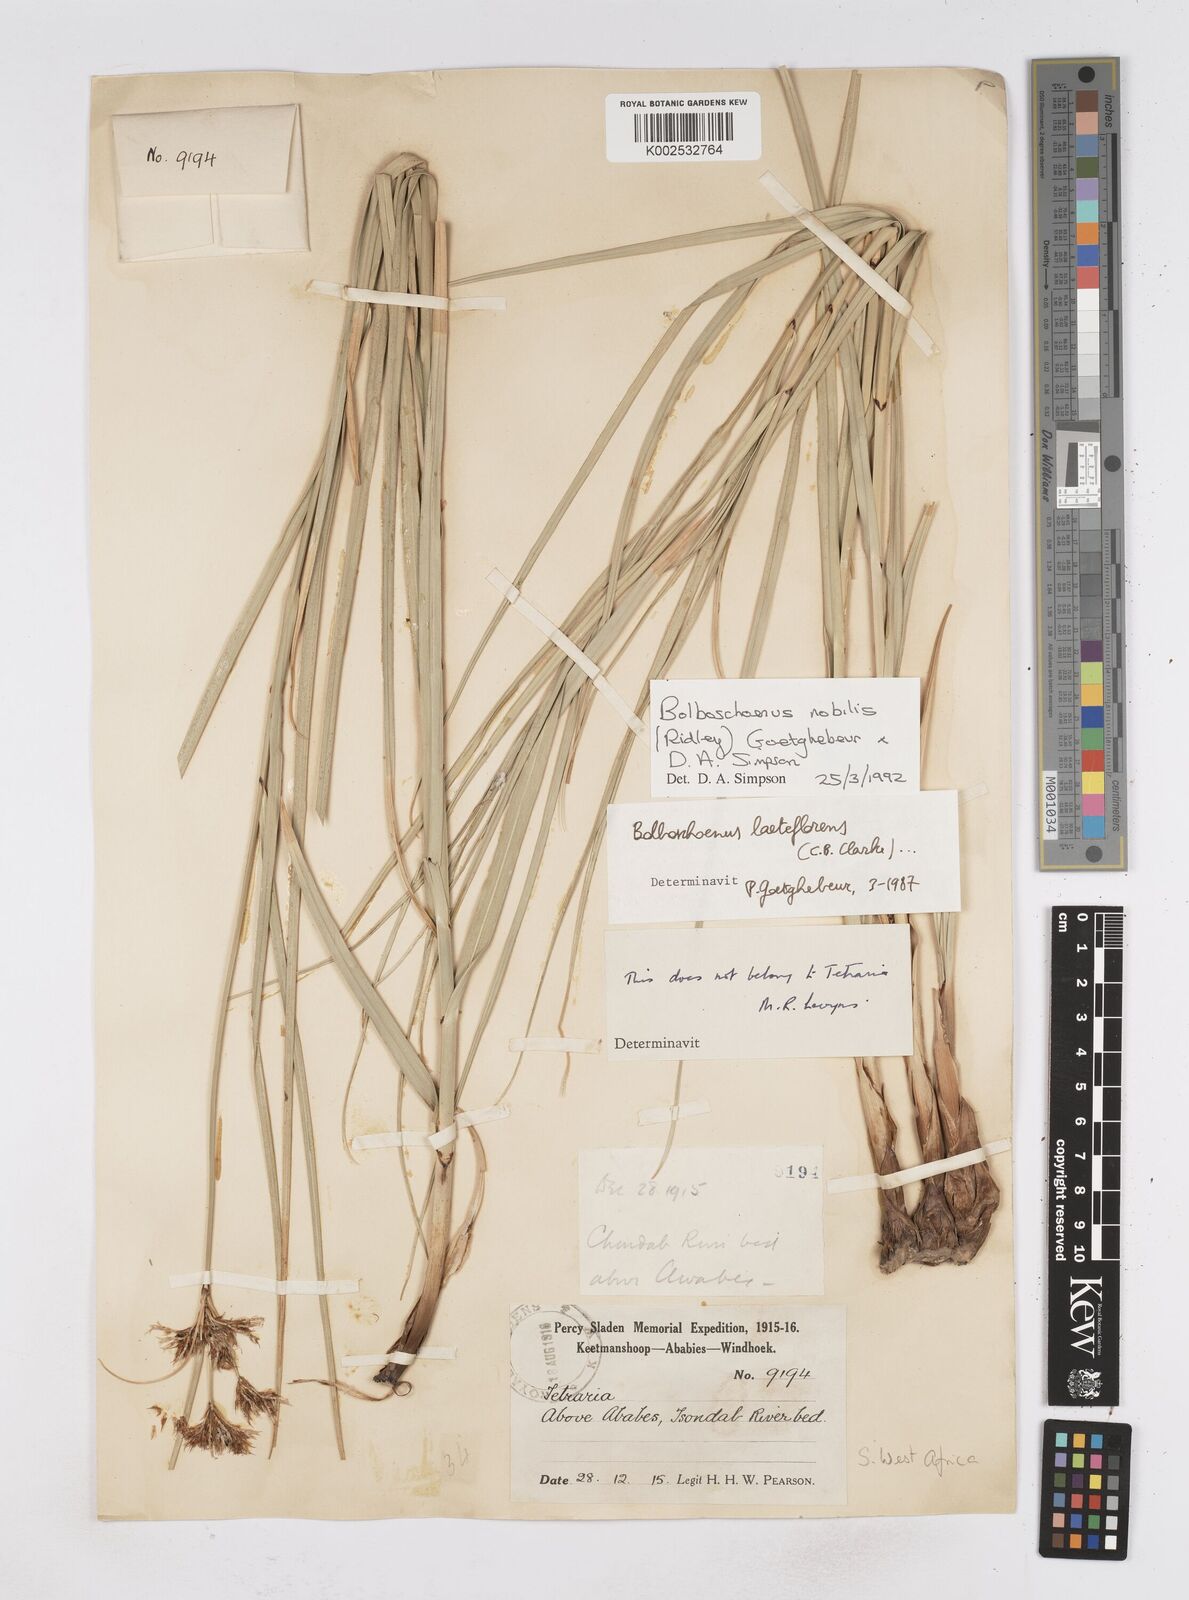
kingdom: Plantae
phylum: Tracheophyta
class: Liliopsida
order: Poales
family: Cyperaceae
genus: Bolboschoenus
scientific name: Bolboschoenus nobilis
